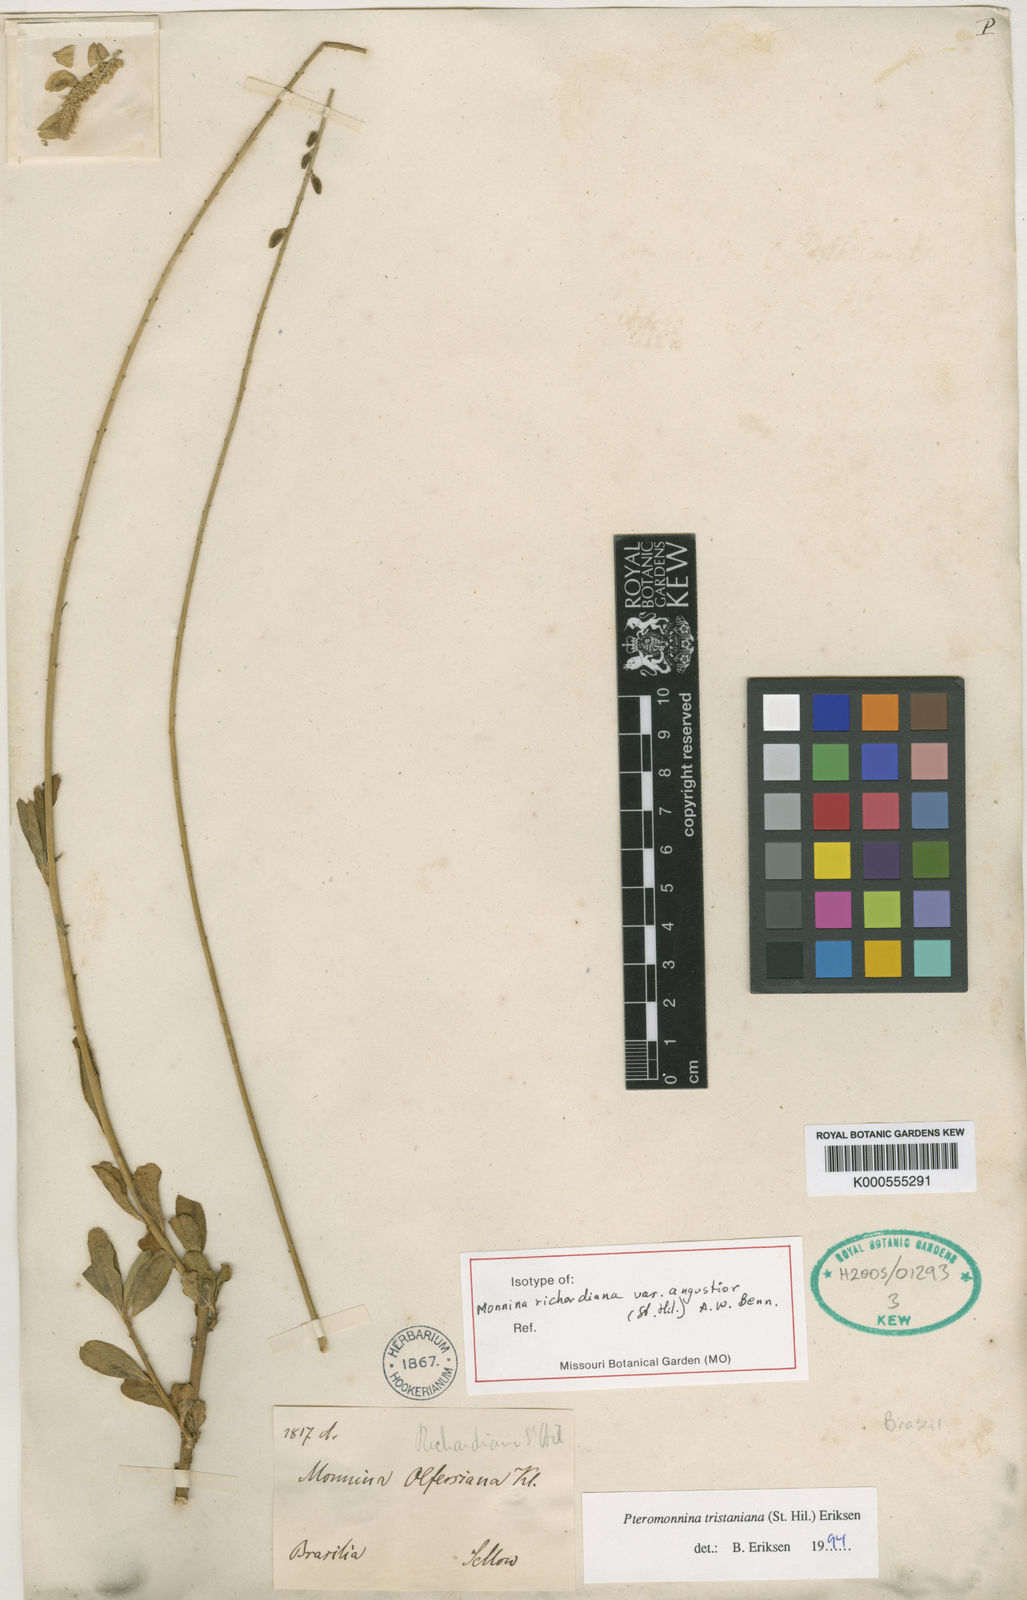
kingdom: Plantae
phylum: Tracheophyta
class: Magnoliopsida
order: Fabales
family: Polygalaceae
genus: Monnina
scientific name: Monnina richardiana
